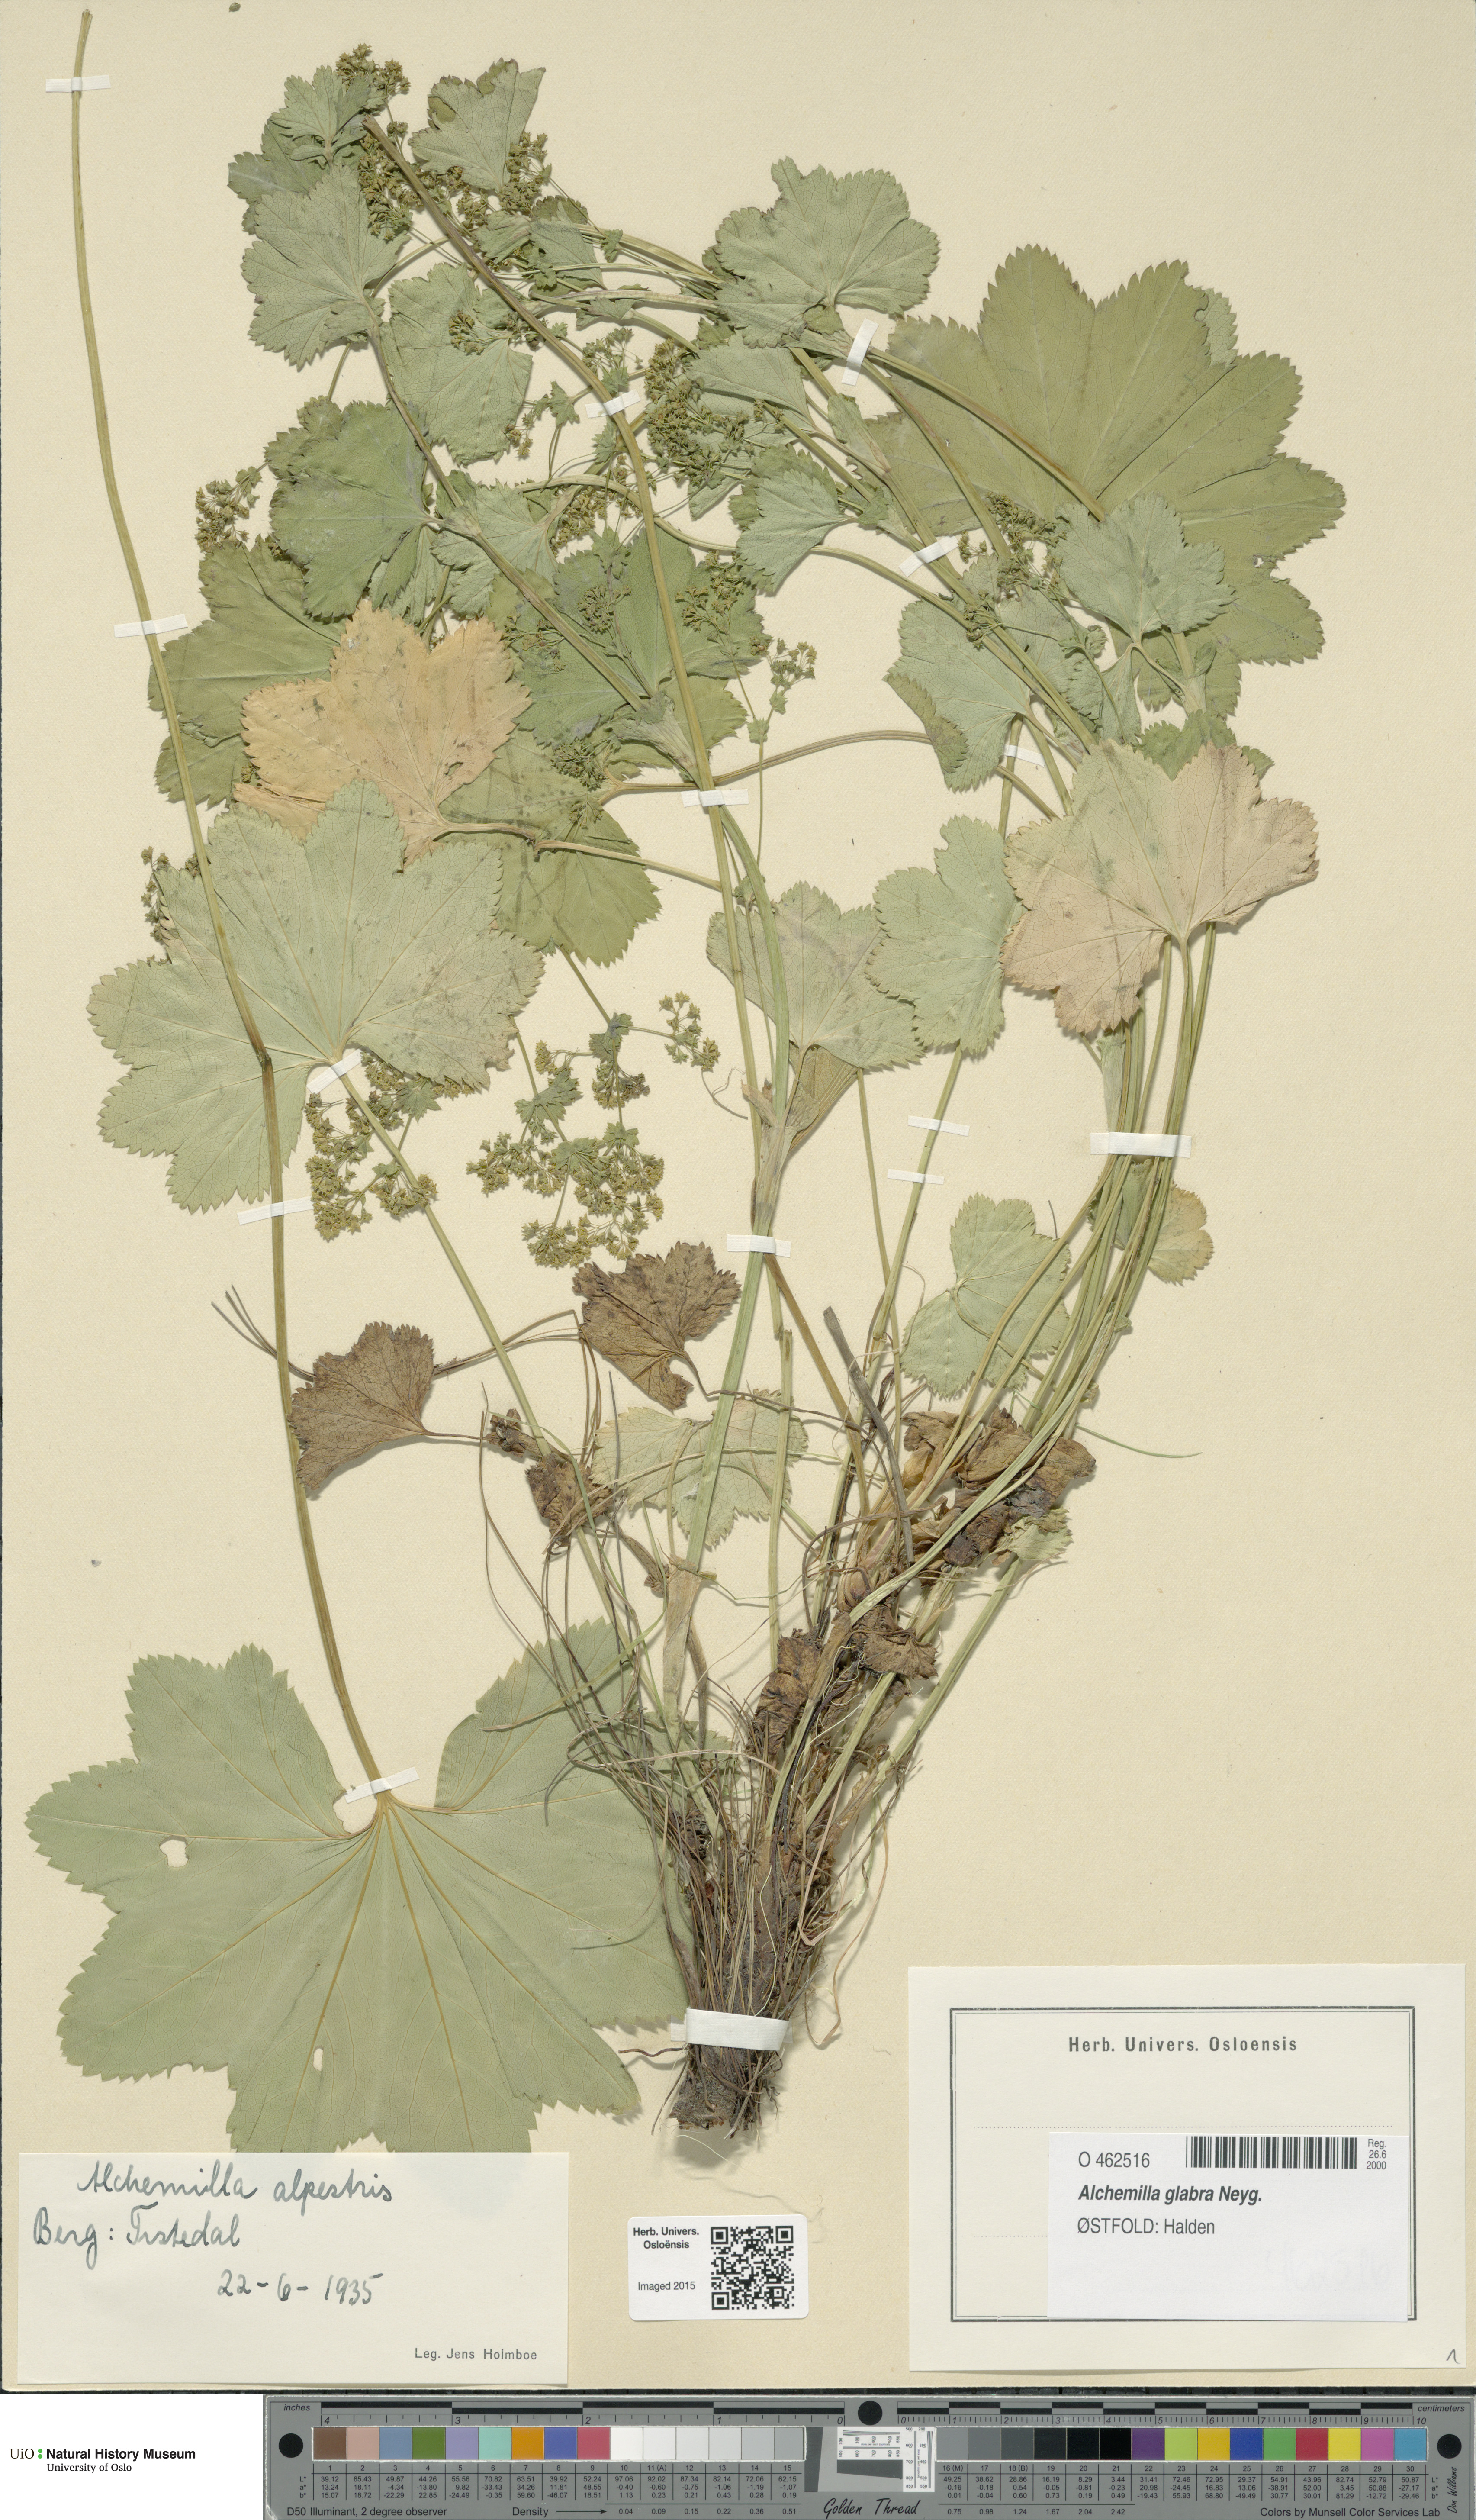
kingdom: Plantae
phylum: Tracheophyta
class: Magnoliopsida
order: Rosales
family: Rosaceae
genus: Alchemilla
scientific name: Alchemilla glabra
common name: Smooth lady's-mantle
